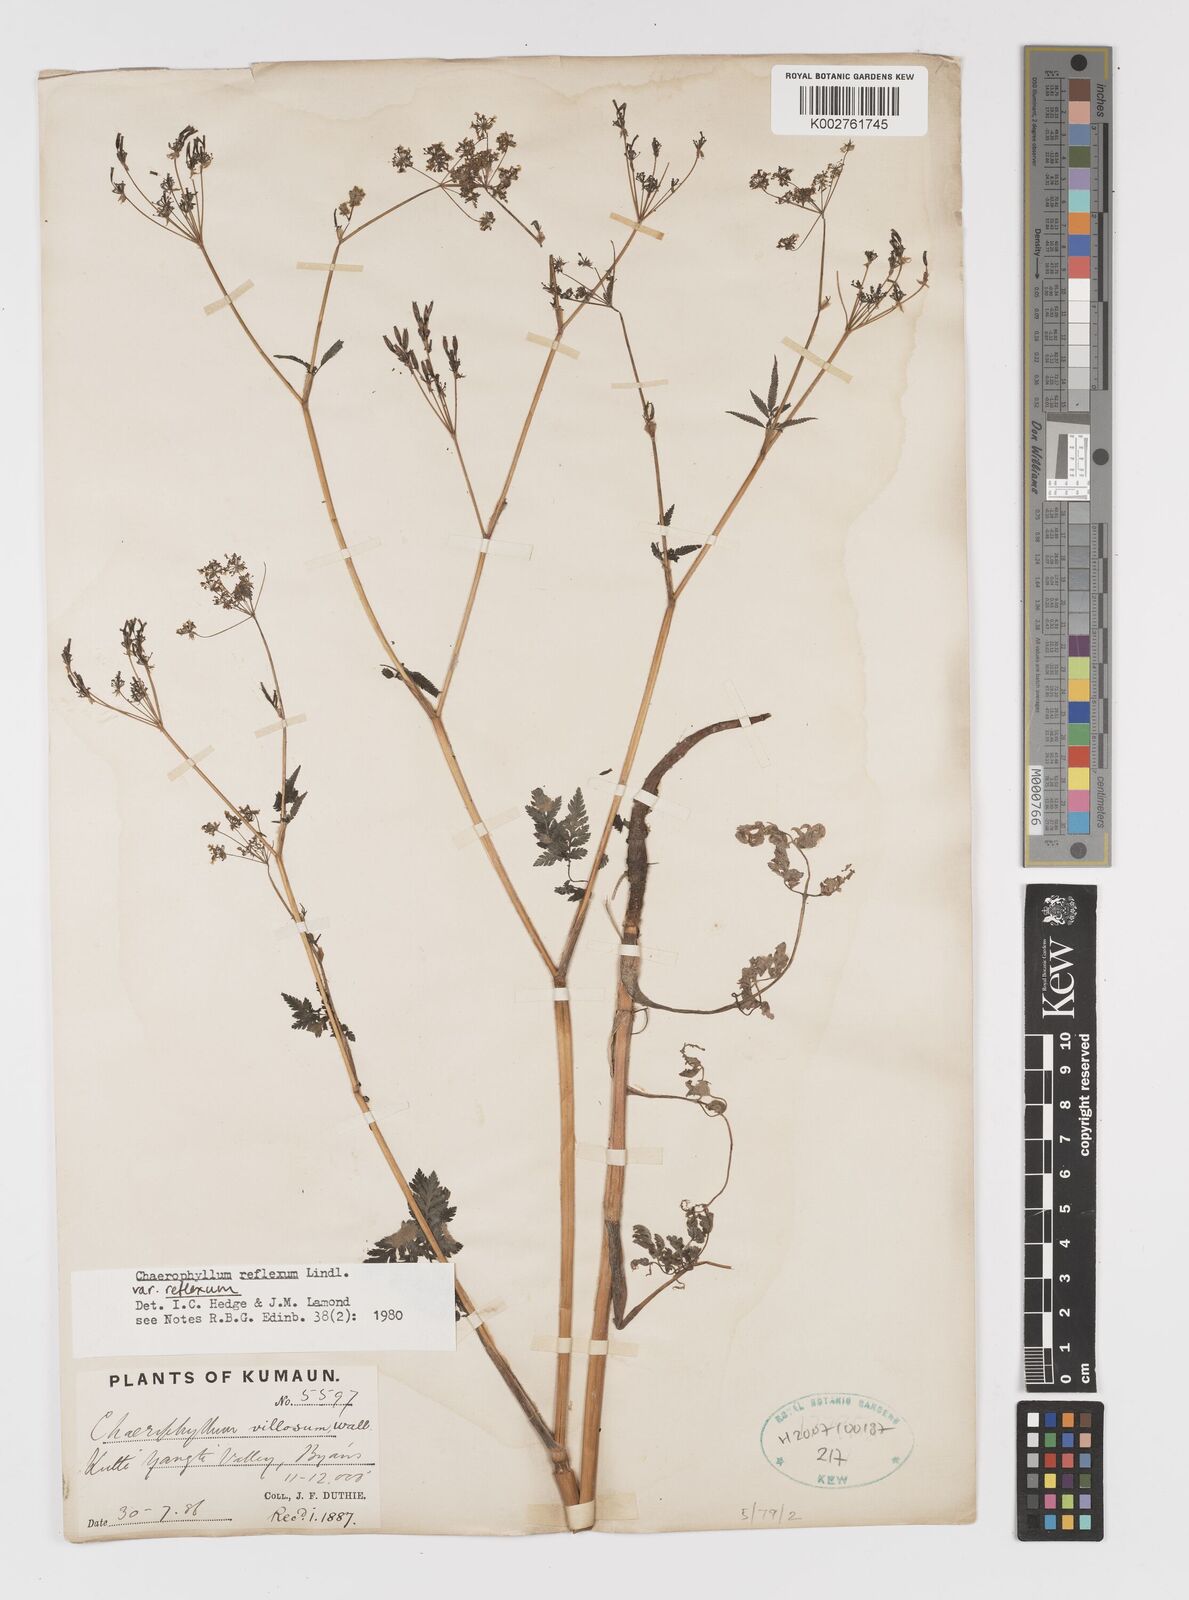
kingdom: Plantae
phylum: Tracheophyta
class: Magnoliopsida
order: Apiales
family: Apiaceae
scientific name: Apiaceae
